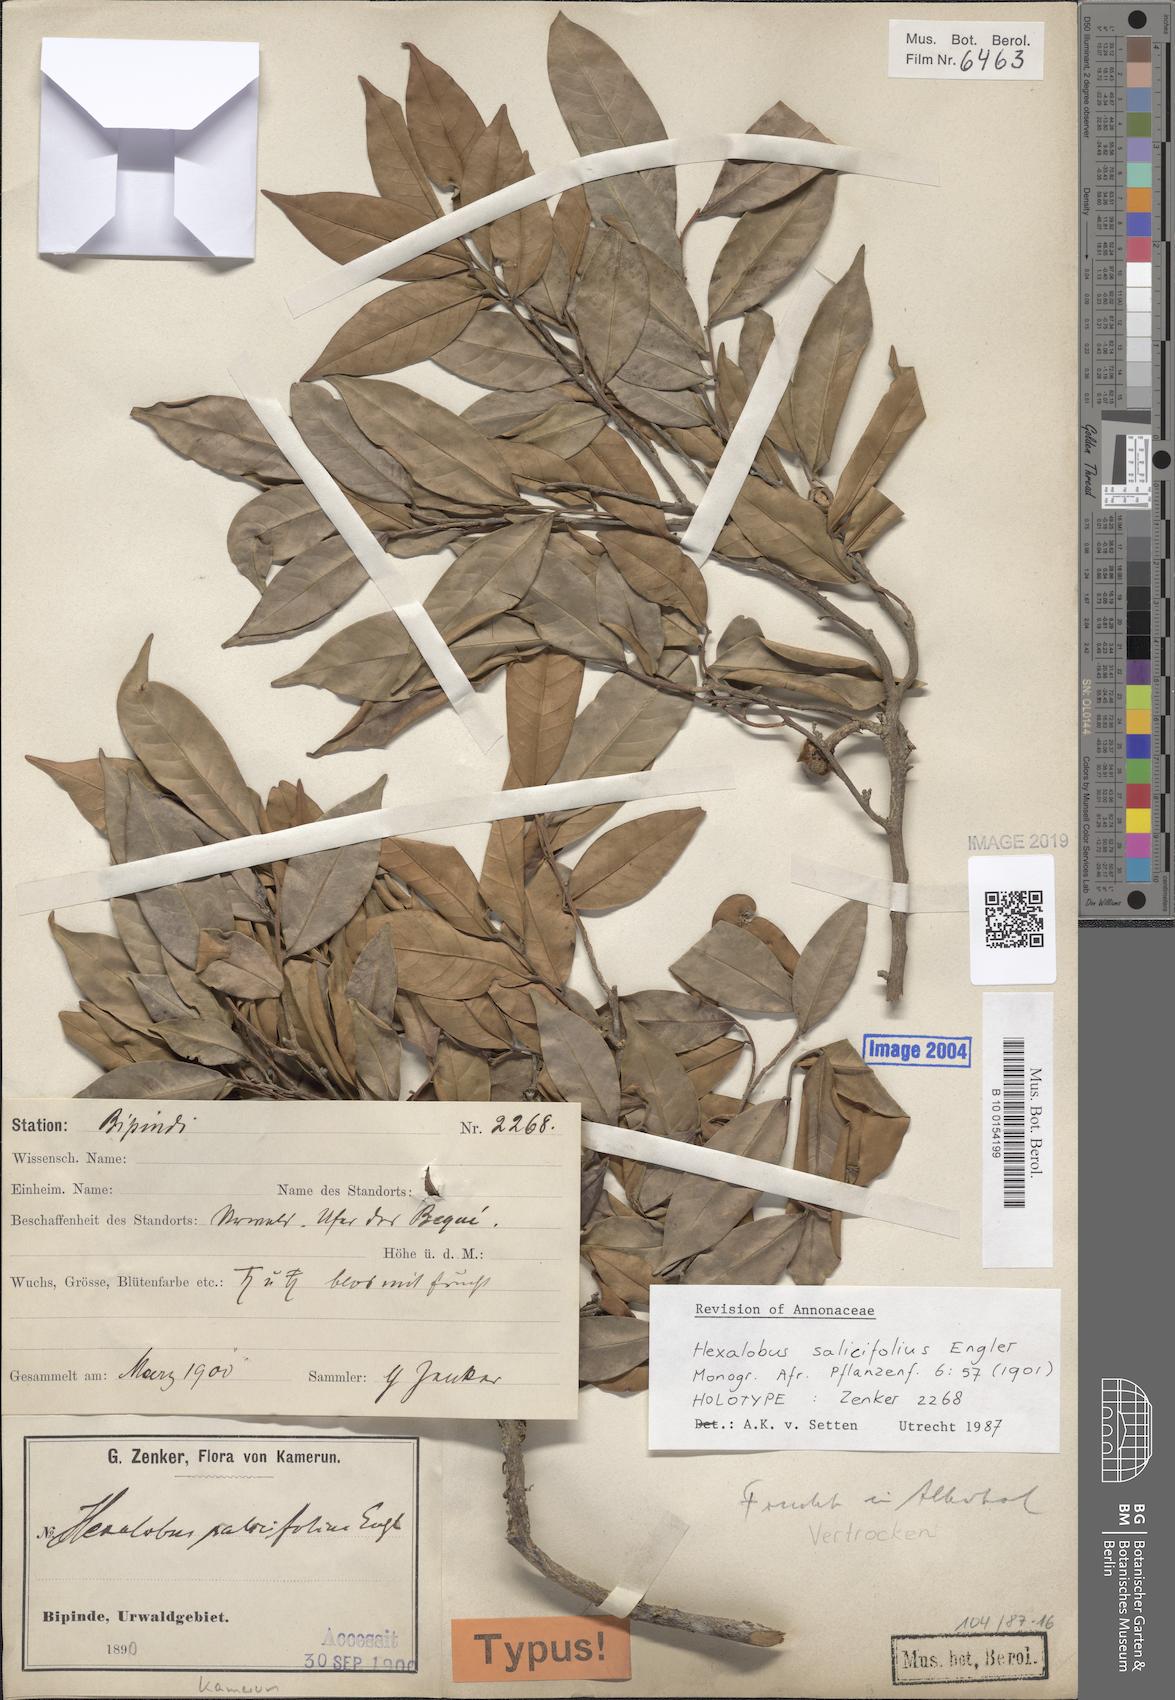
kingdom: Plantae
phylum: Tracheophyta
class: Magnoliopsida
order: Magnoliales
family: Annonaceae
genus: Hexalobus
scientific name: Hexalobus salicifolius
